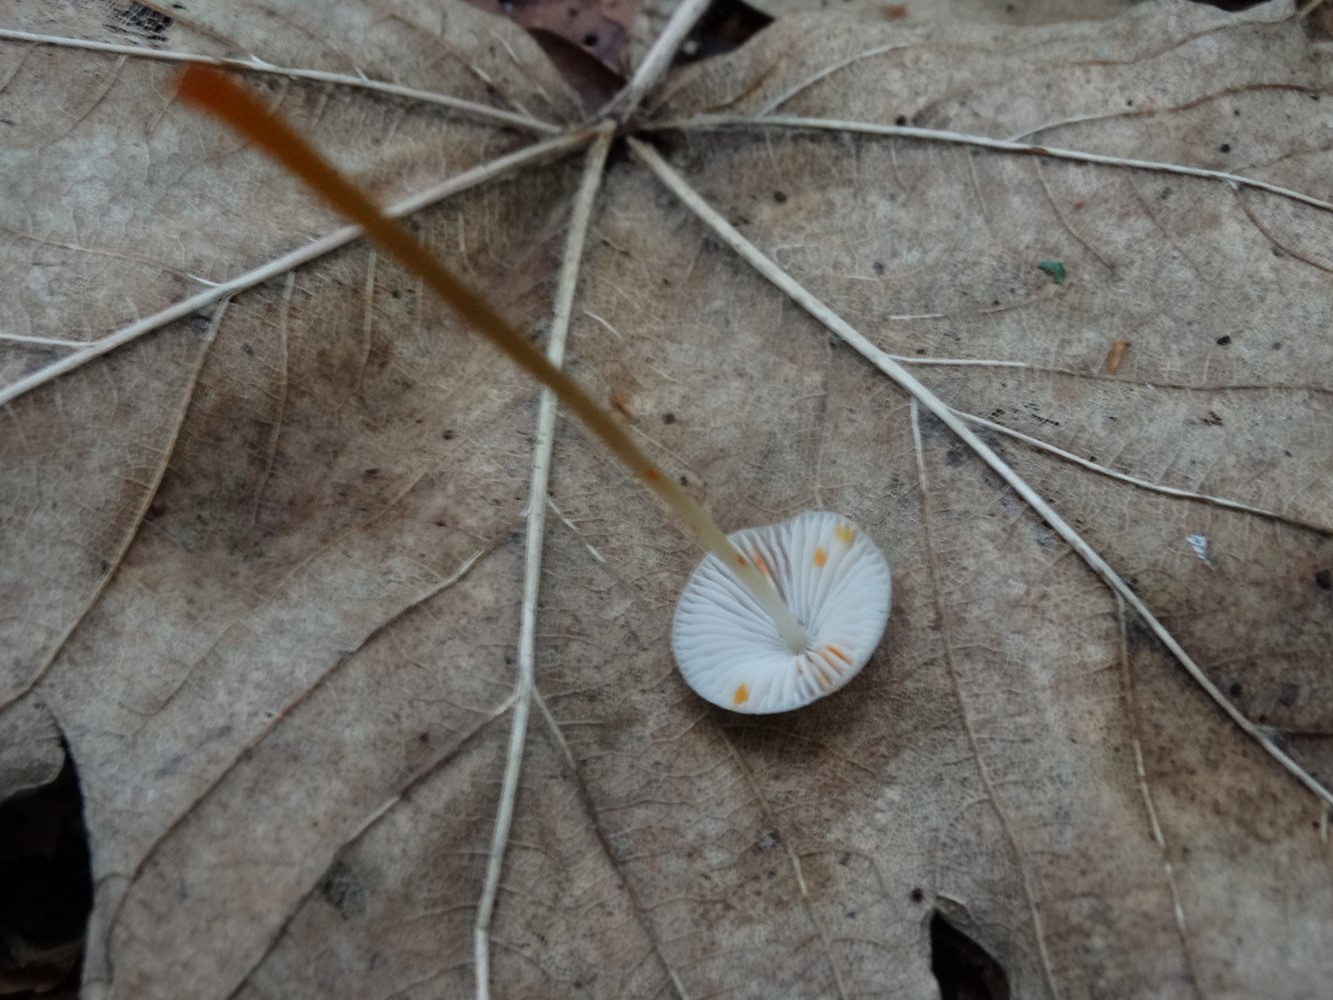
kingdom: Fungi
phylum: Basidiomycota
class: Agaricomycetes
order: Agaricales
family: Mycenaceae
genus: Mycena
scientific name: Mycena crocata
